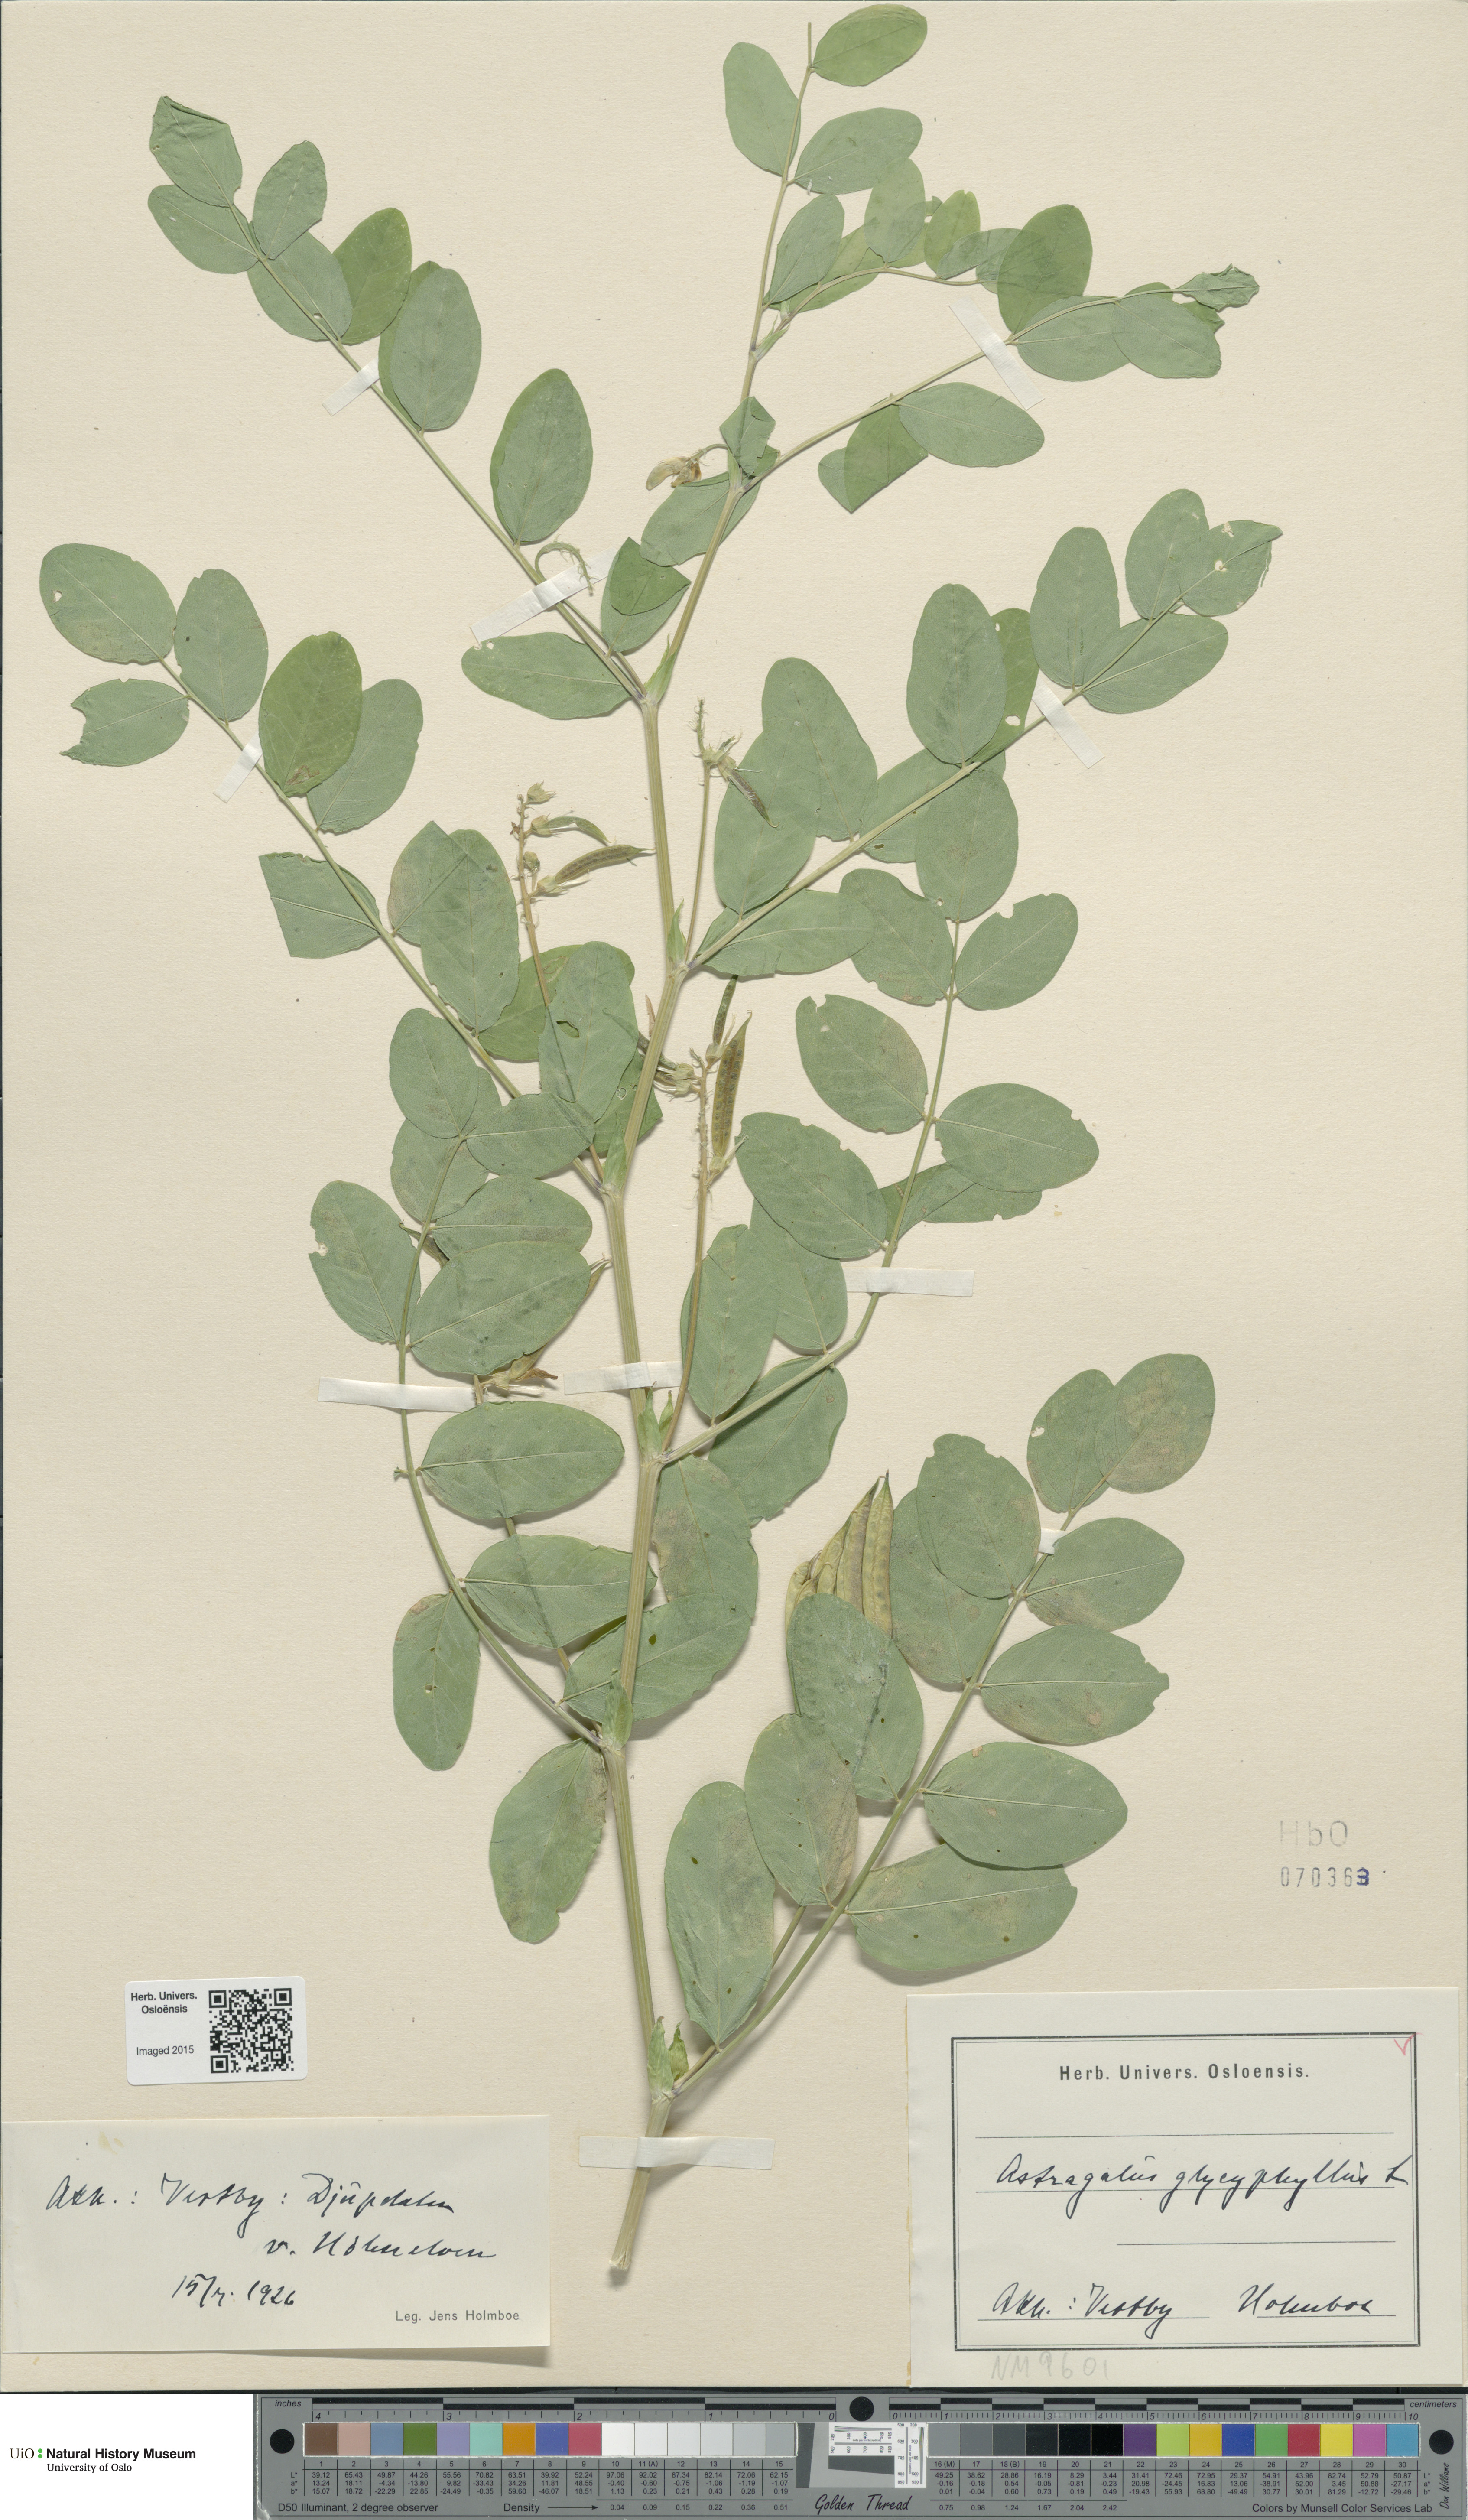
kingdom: Plantae
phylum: Tracheophyta
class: Magnoliopsida
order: Fabales
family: Fabaceae
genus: Astragalus
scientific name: Astragalus glycyphyllos
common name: Wild liquorice
